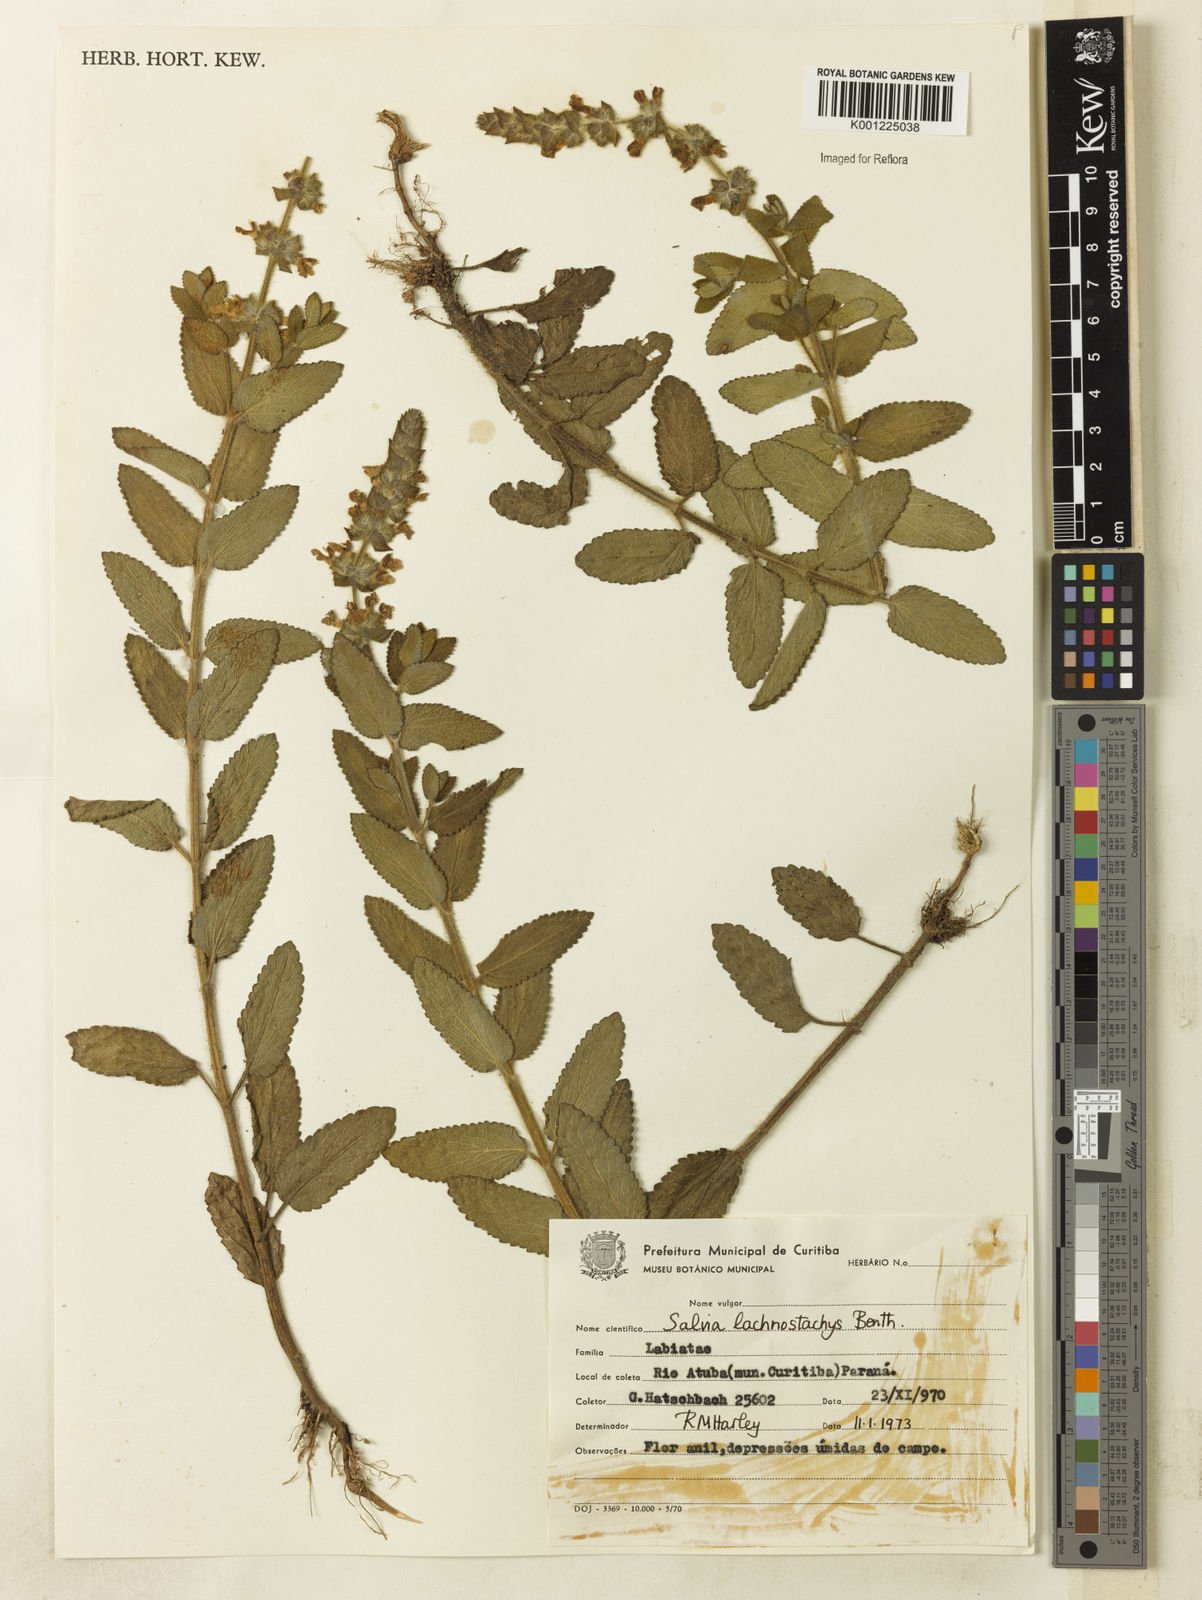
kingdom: Plantae
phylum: Tracheophyta
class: Magnoliopsida
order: Lamiales
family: Lamiaceae
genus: Salvia
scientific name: Salvia lachnostachys
